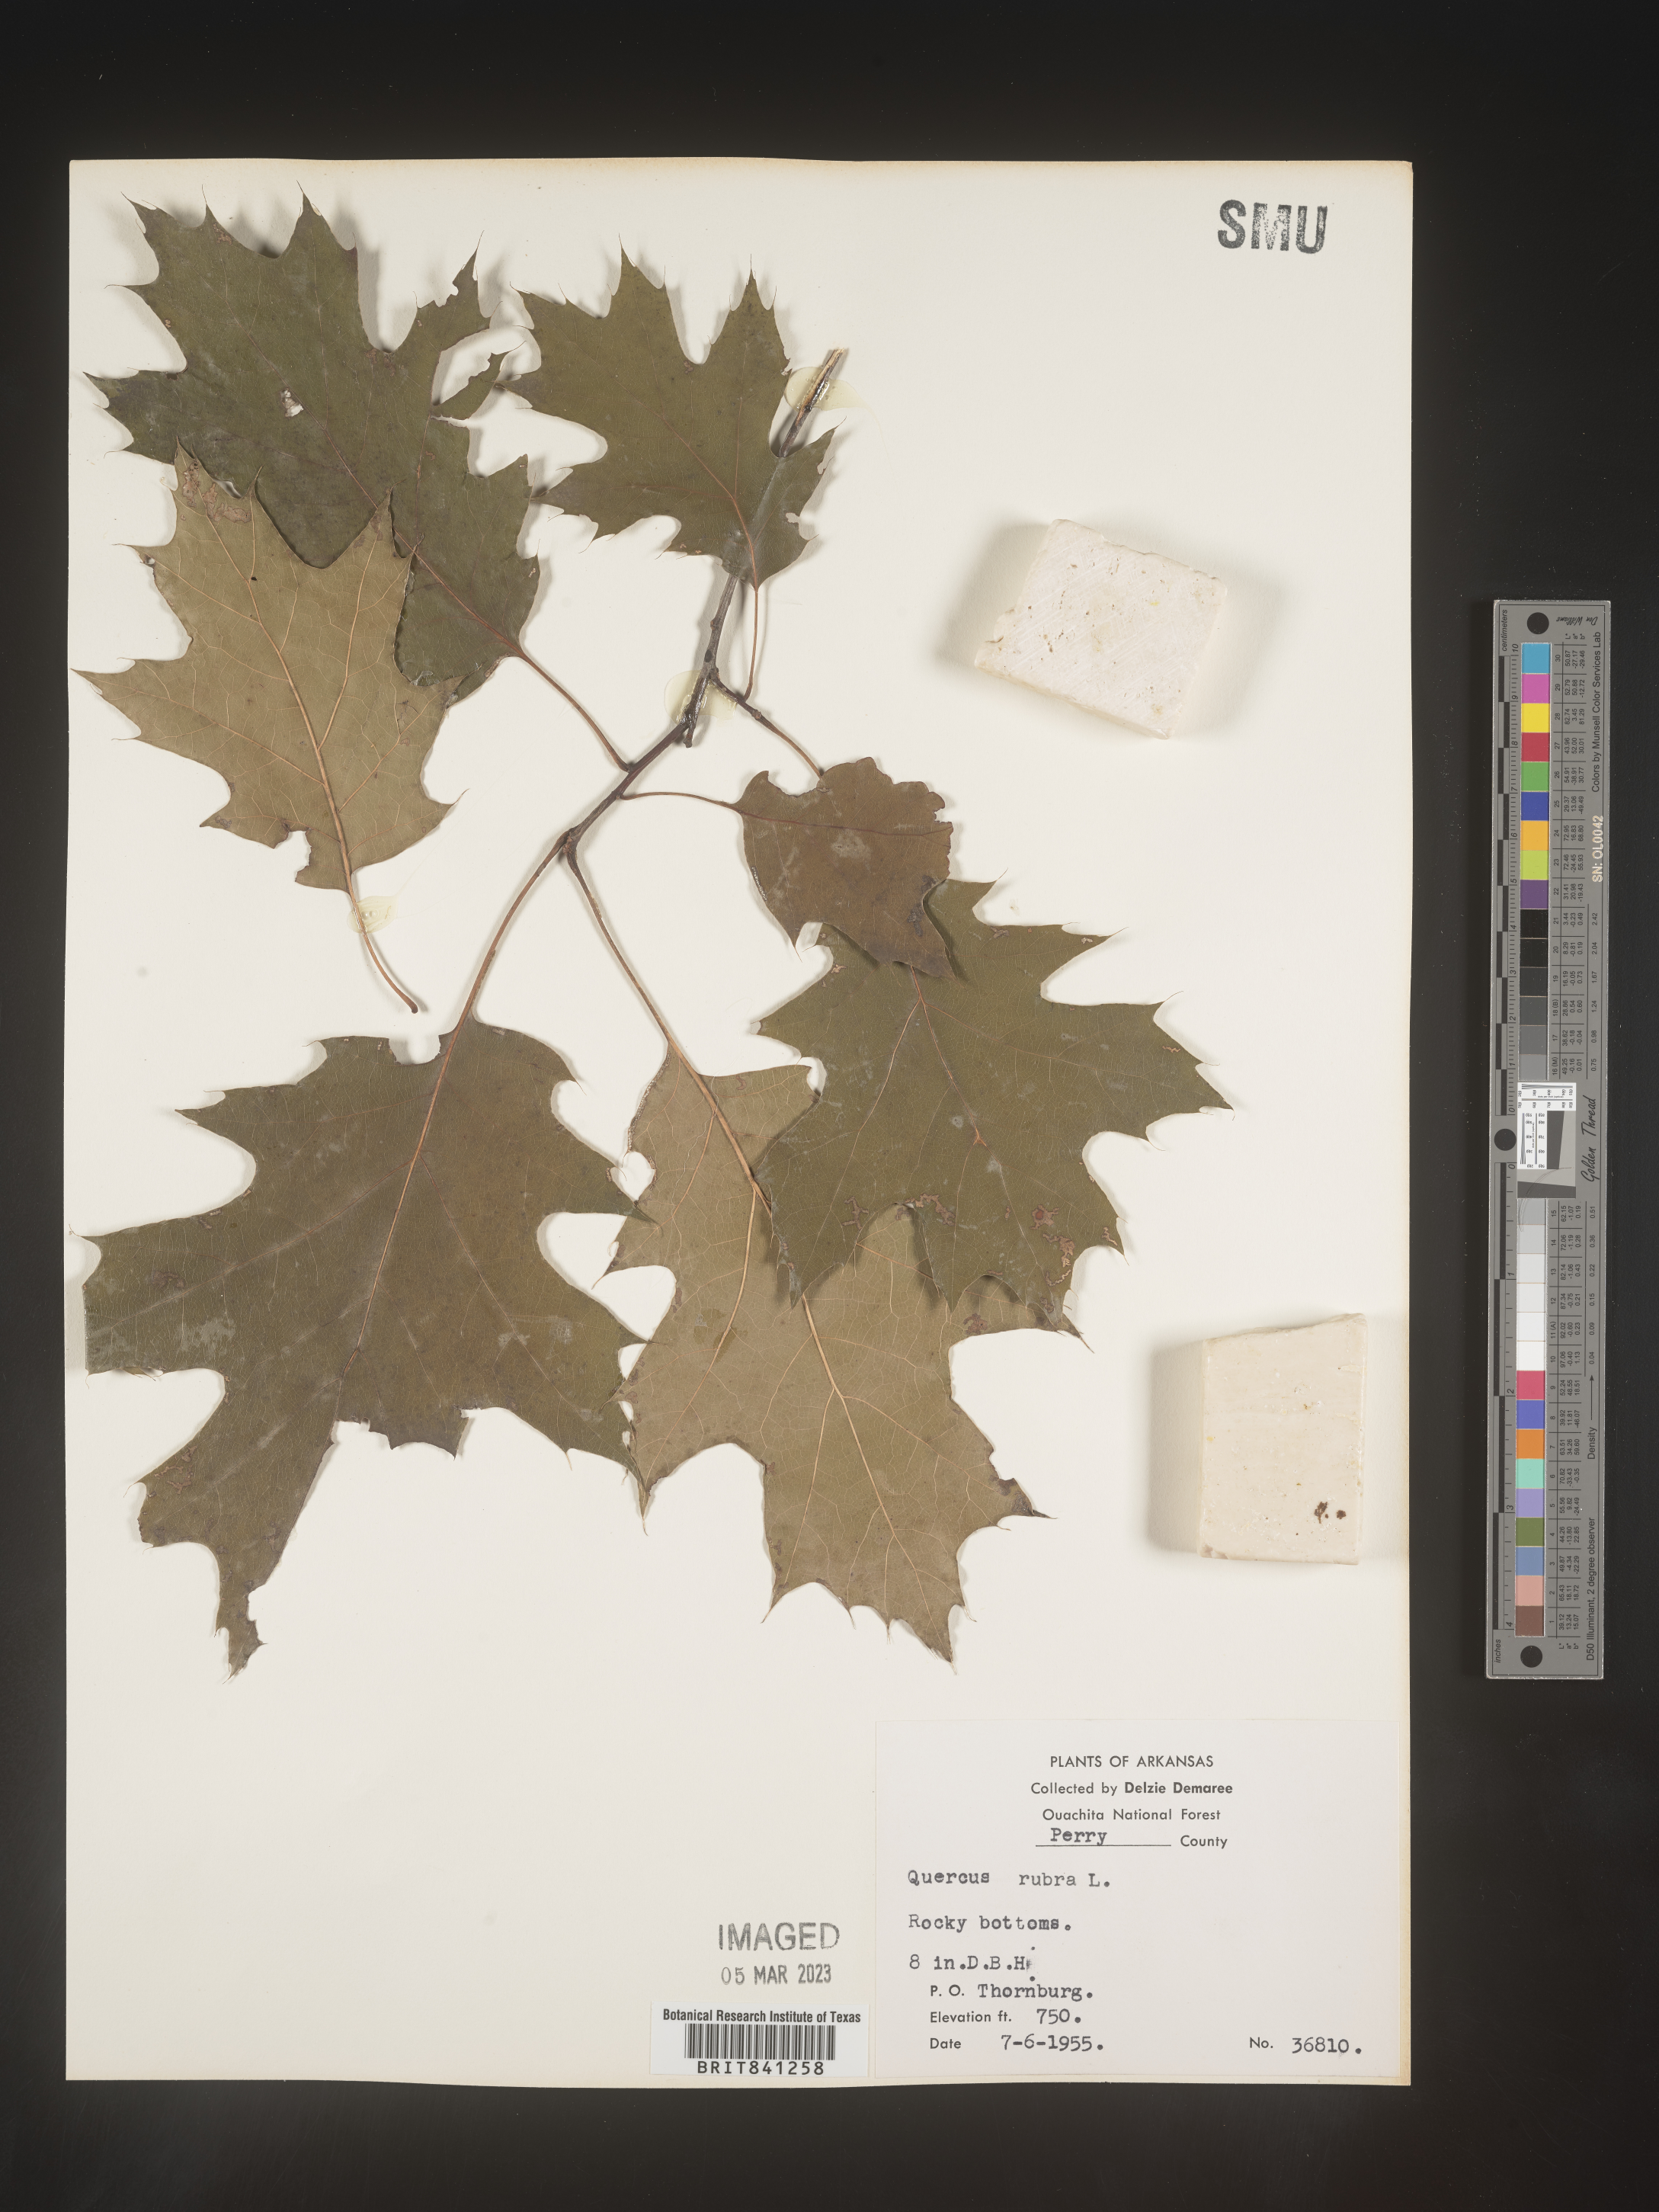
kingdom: Plantae
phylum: Tracheophyta
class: Magnoliopsida
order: Fagales
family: Fagaceae
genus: Quercus
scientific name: Quercus rubra
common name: Red oak
